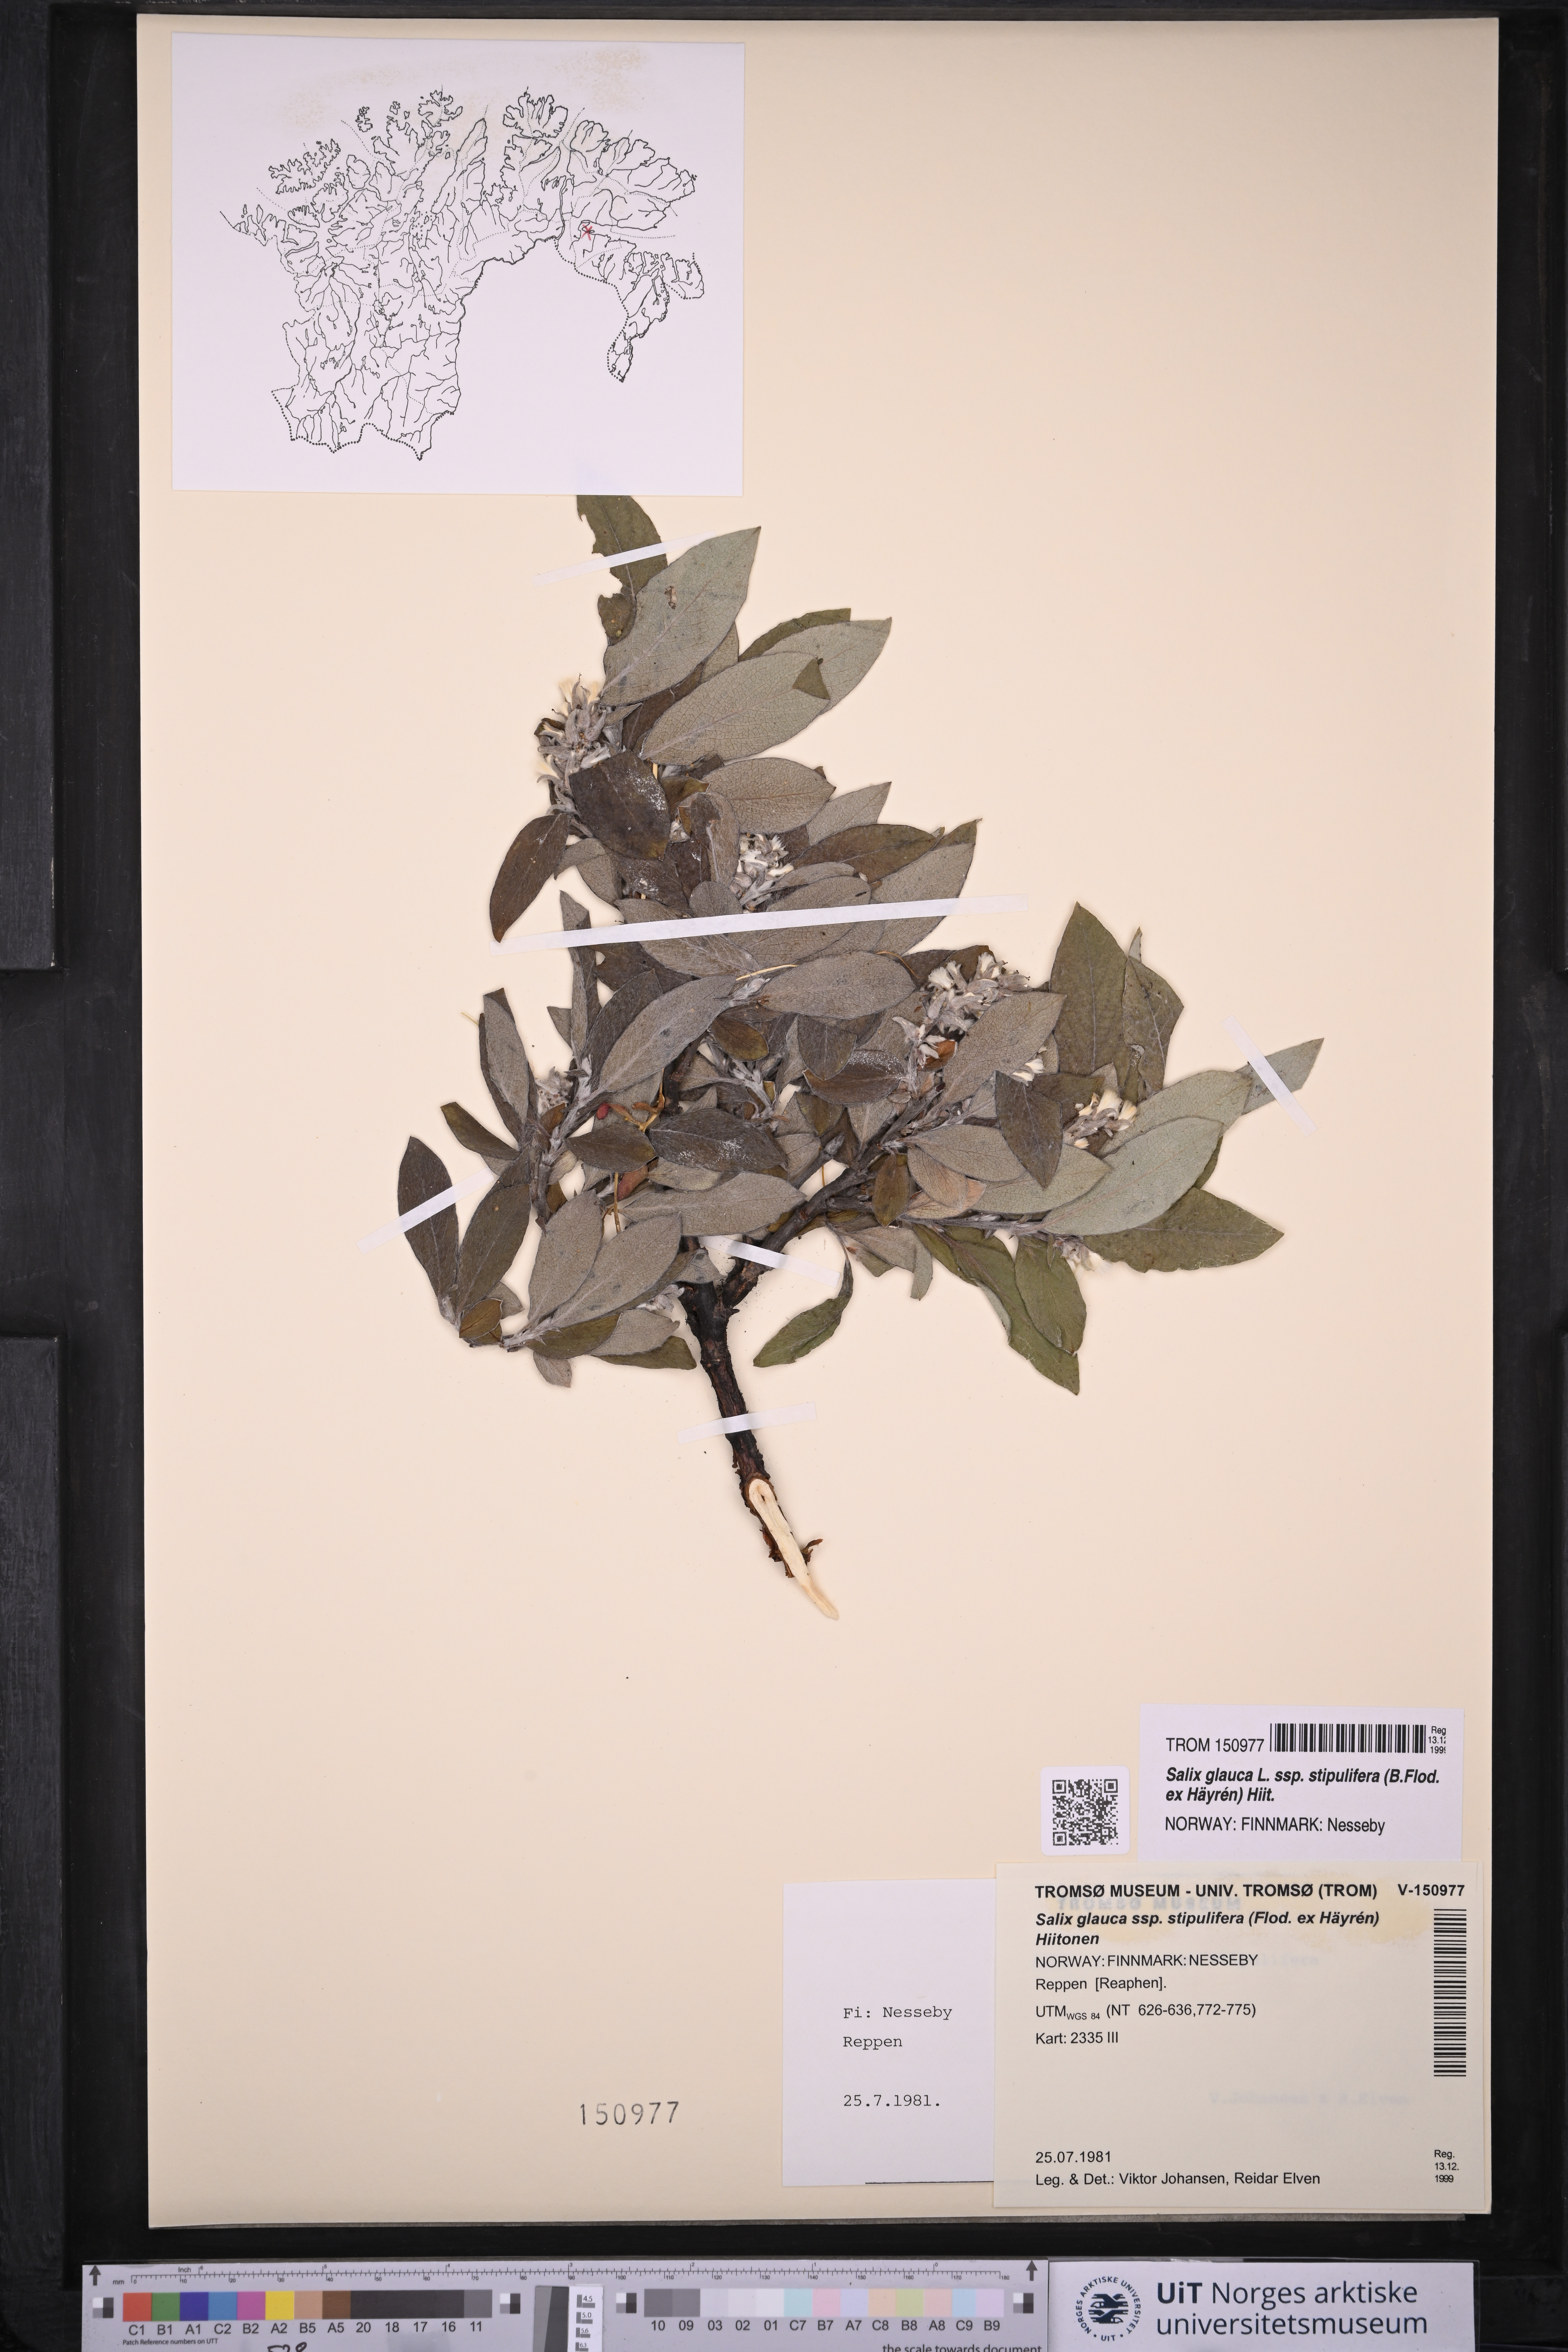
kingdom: Plantae
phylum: Tracheophyta
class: Magnoliopsida
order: Malpighiales
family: Salicaceae
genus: Salix
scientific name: Salix glauca
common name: Glaucous willow
